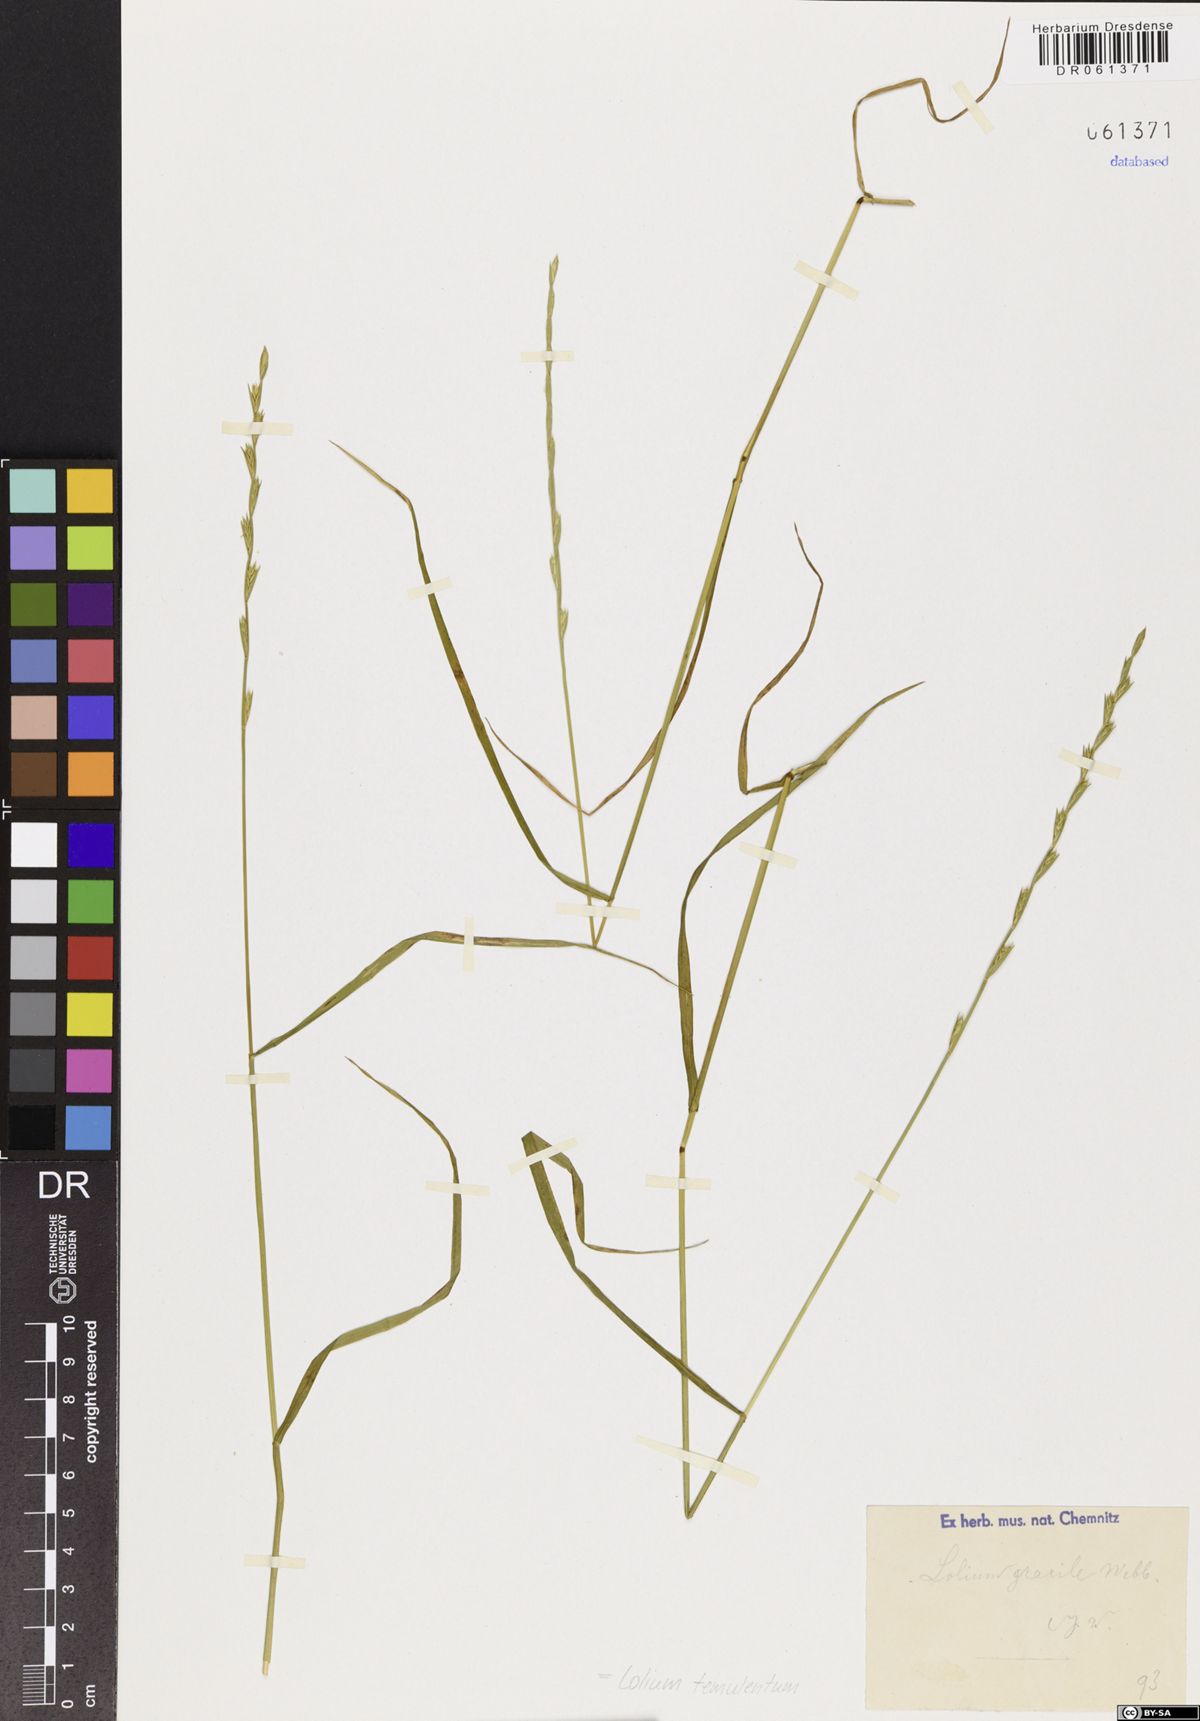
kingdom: Plantae
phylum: Tracheophyta
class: Liliopsida
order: Poales
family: Poaceae
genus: Lolium
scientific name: Lolium temulentum
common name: Darnel
